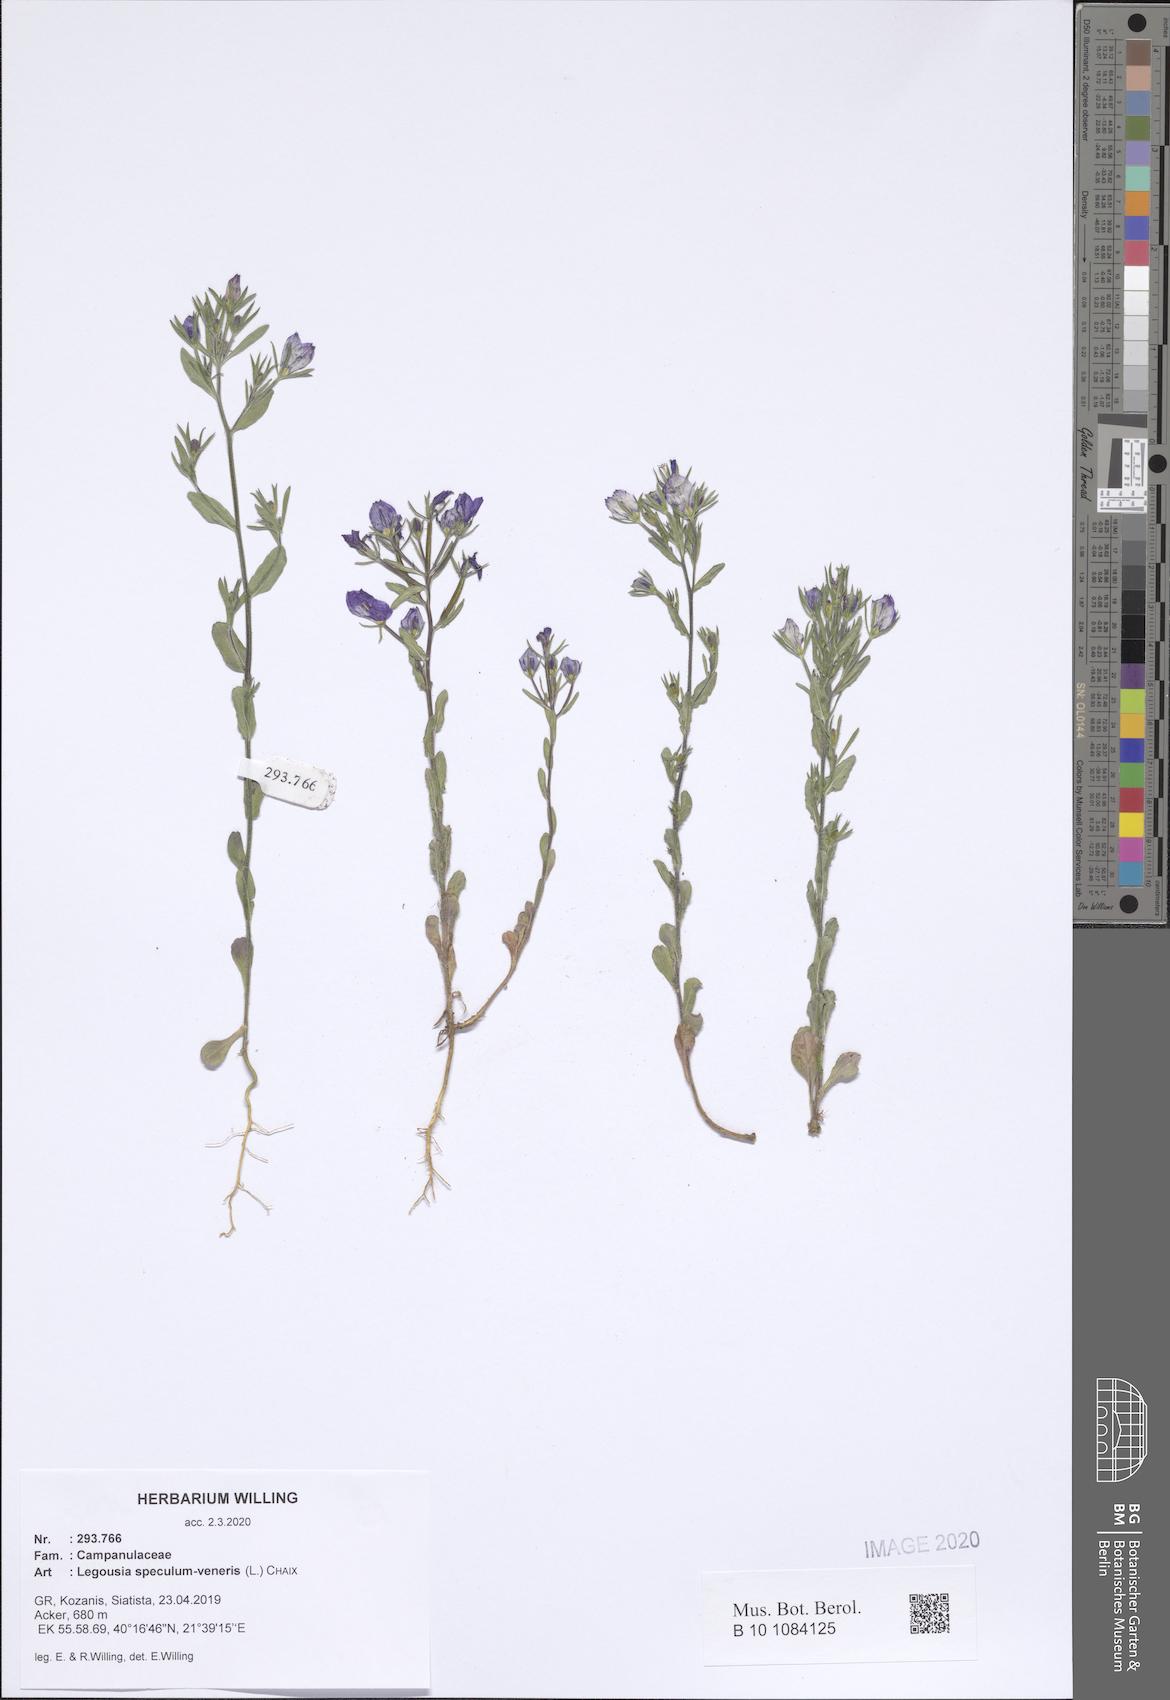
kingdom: Plantae
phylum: Tracheophyta
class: Magnoliopsida
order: Asterales
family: Campanulaceae
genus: Legousia
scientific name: Legousia speculum-veneris
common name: Large venus's-looking-glass
